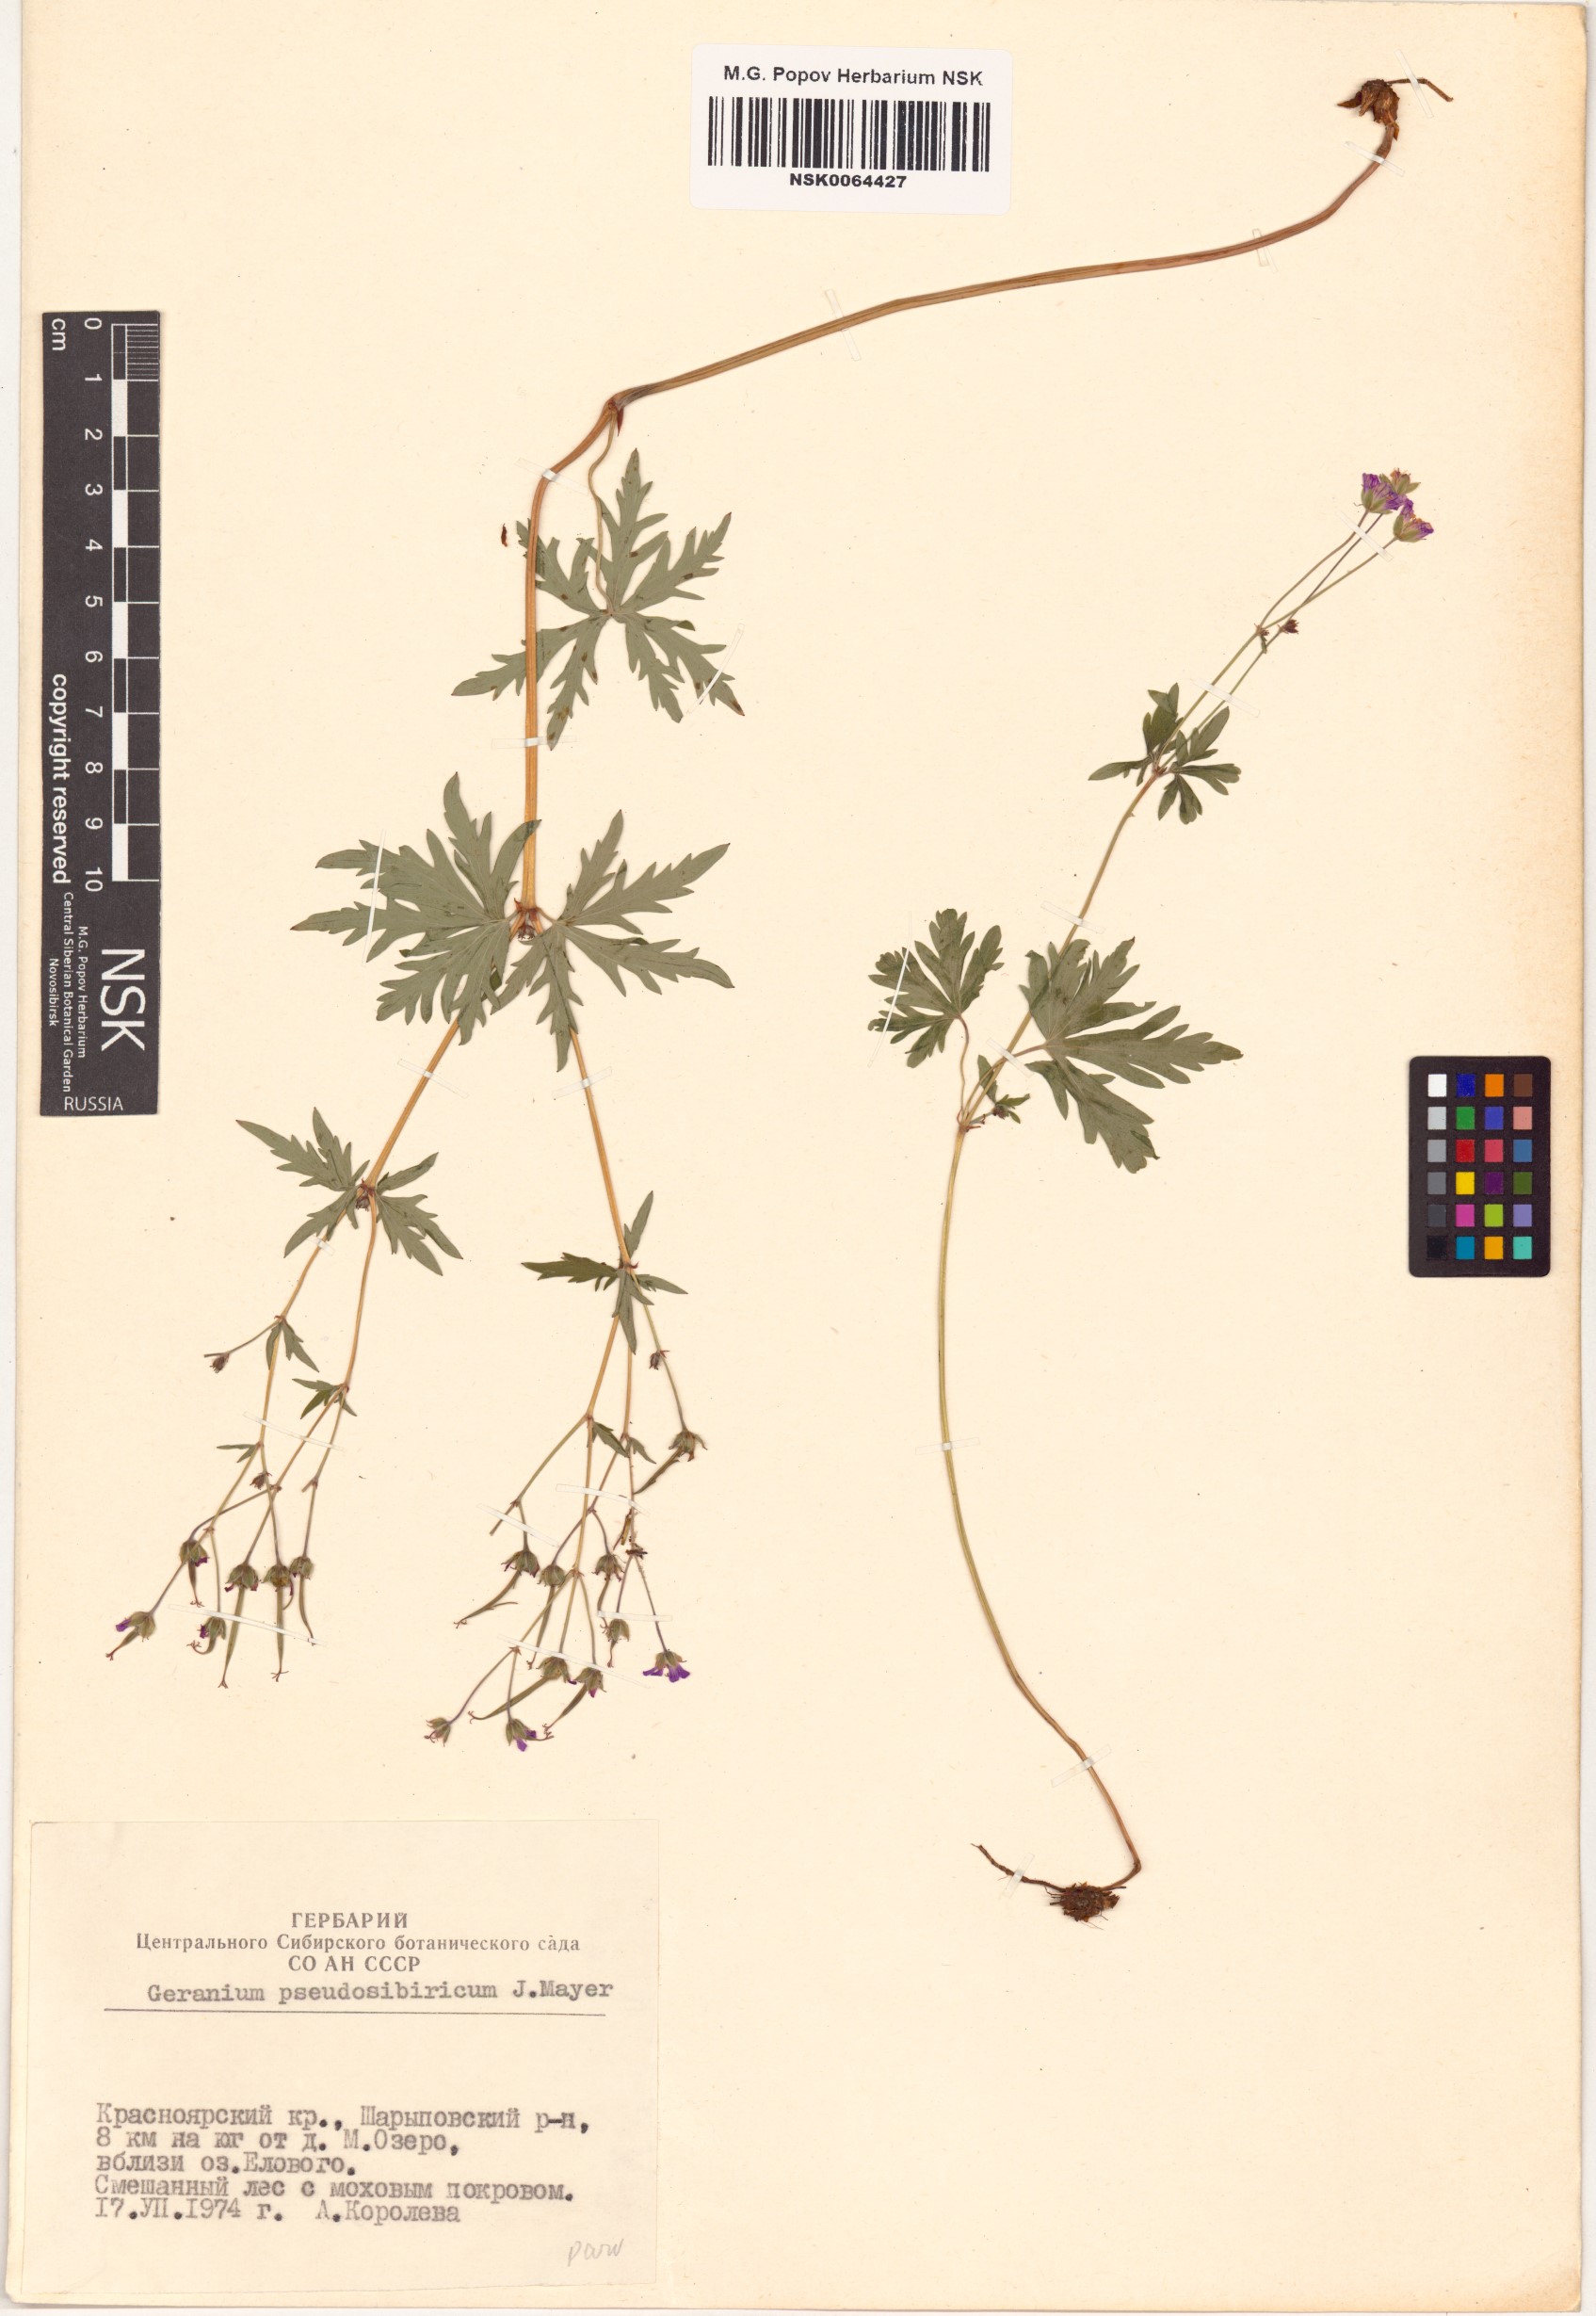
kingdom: Plantae
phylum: Tracheophyta
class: Magnoliopsida
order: Geraniales
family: Geraniaceae
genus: Geranium
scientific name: Geranium pseudosibiricum
